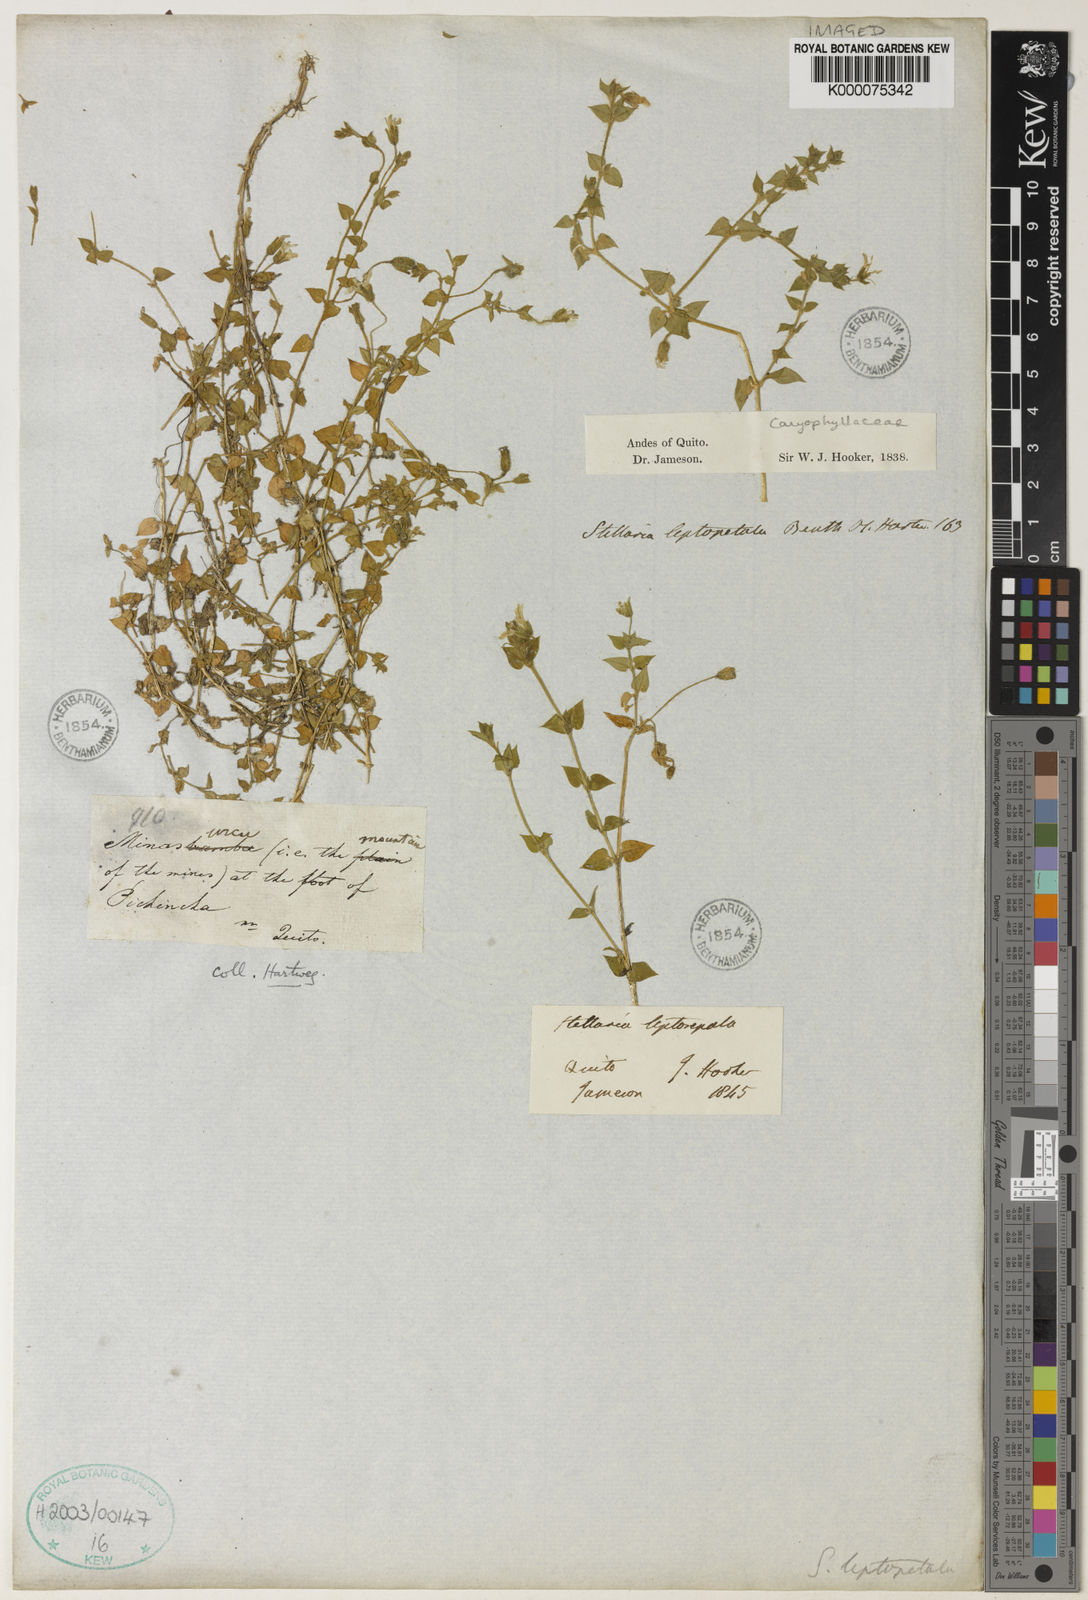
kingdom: Plantae
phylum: Tracheophyta
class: Magnoliopsida
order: Caryophyllales
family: Caryophyllaceae
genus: Stellaria
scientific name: Stellaria cuspidata
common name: Mexican chickweed
